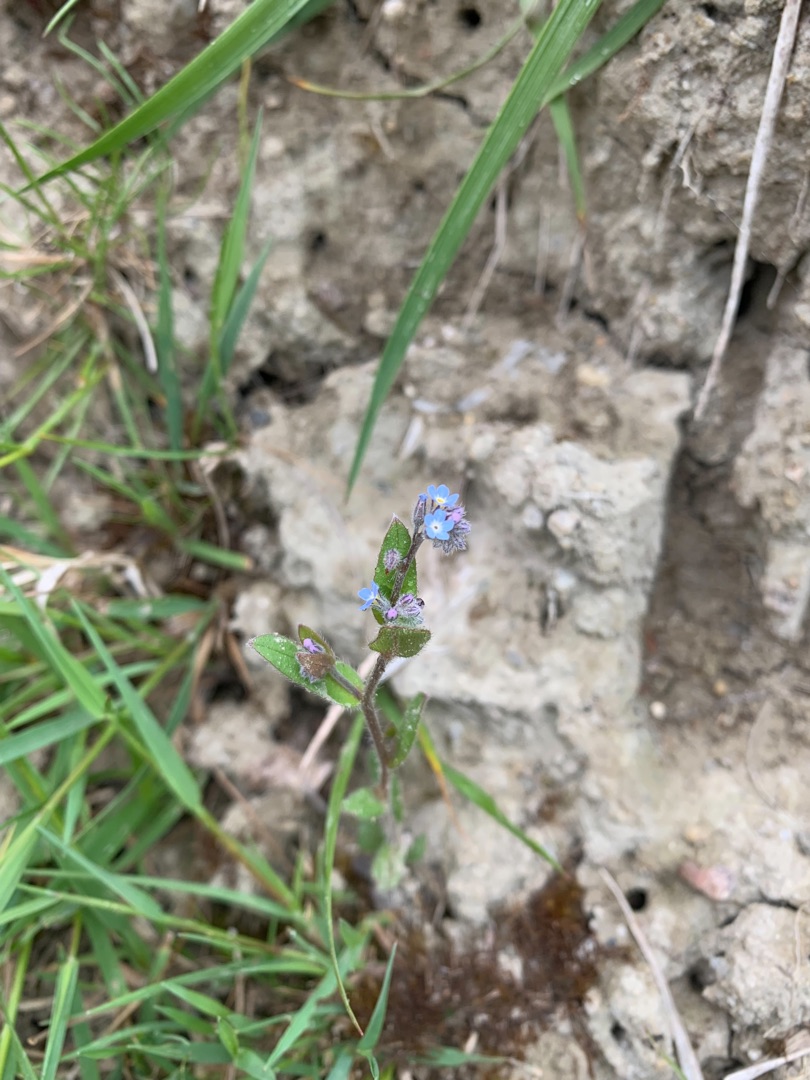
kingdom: Plantae
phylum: Tracheophyta
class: Magnoliopsida
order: Boraginales
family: Boraginaceae
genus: Myosotis
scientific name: Myosotis arvensis
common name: Mark-forglemmigej
